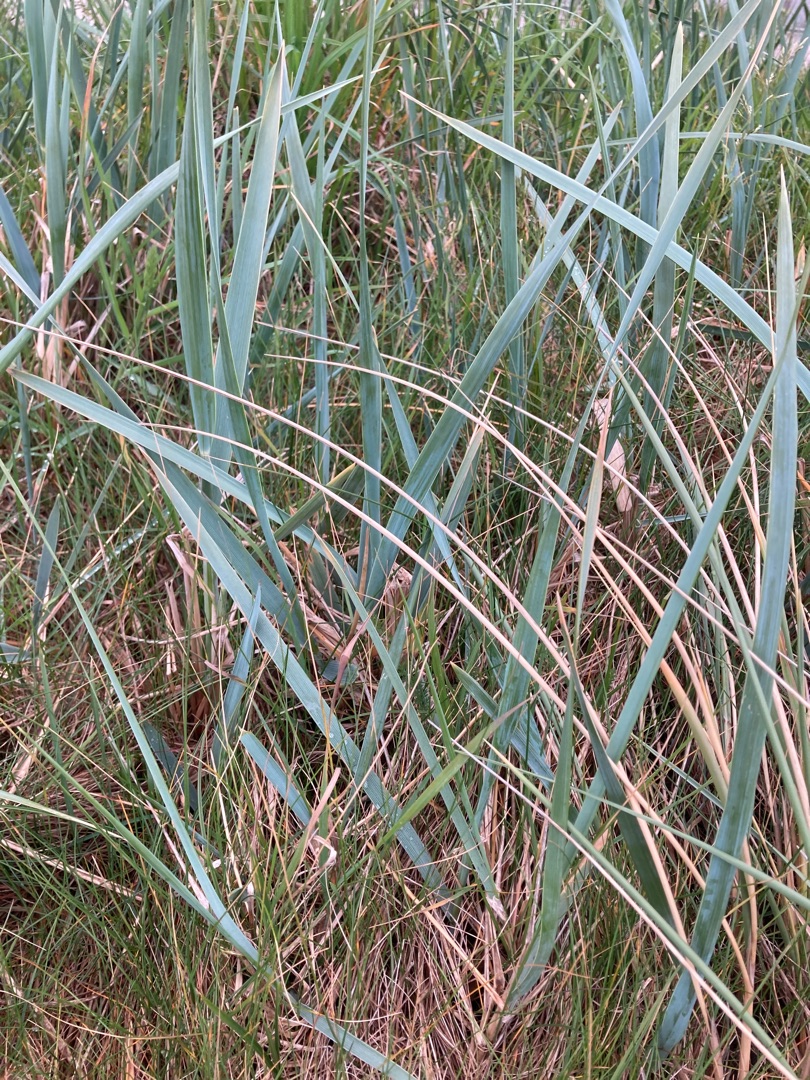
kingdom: Plantae
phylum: Tracheophyta
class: Liliopsida
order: Poales
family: Poaceae
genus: Leymus
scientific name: Leymus arenarius
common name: Marehalm
